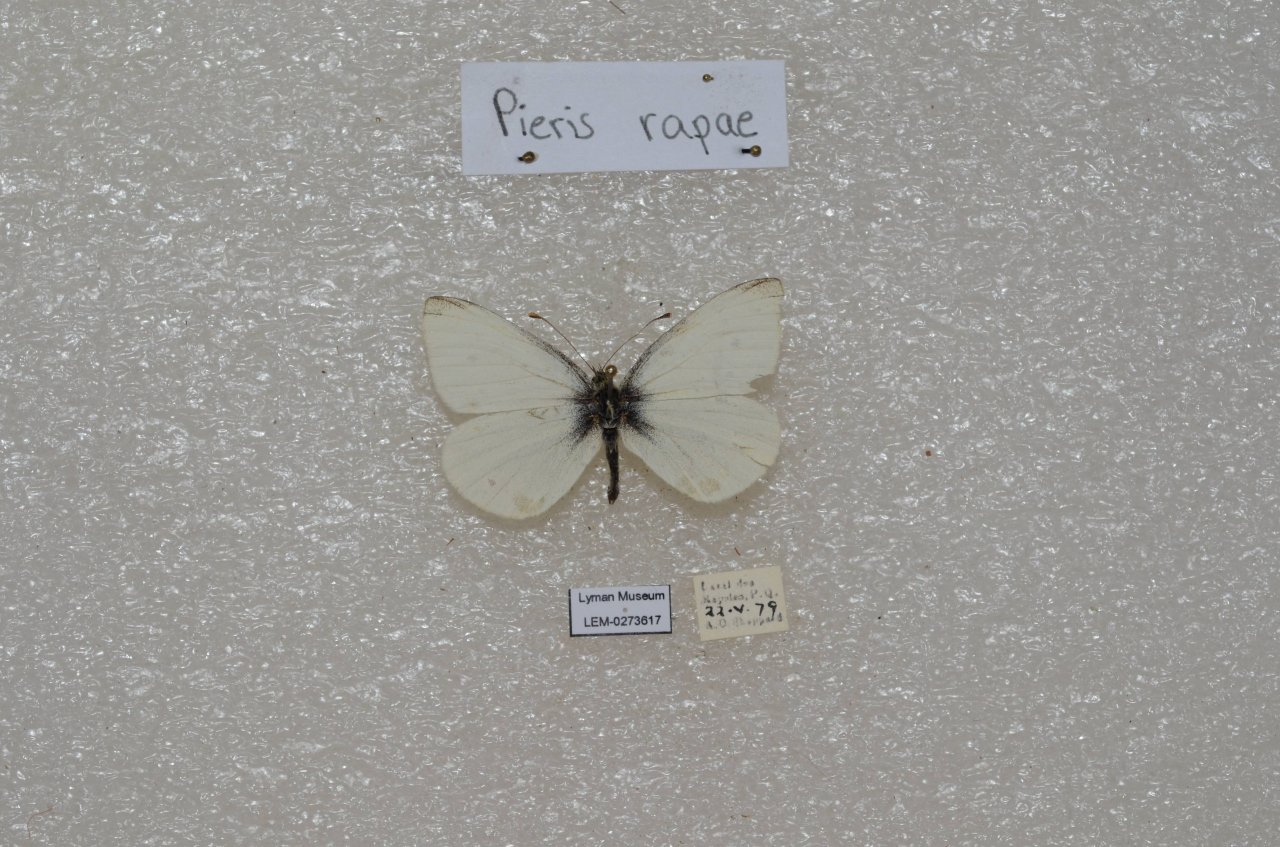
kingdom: Animalia
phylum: Arthropoda
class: Insecta
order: Lepidoptera
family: Pieridae
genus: Pieris
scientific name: Pieris rapae
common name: Cabbage White
